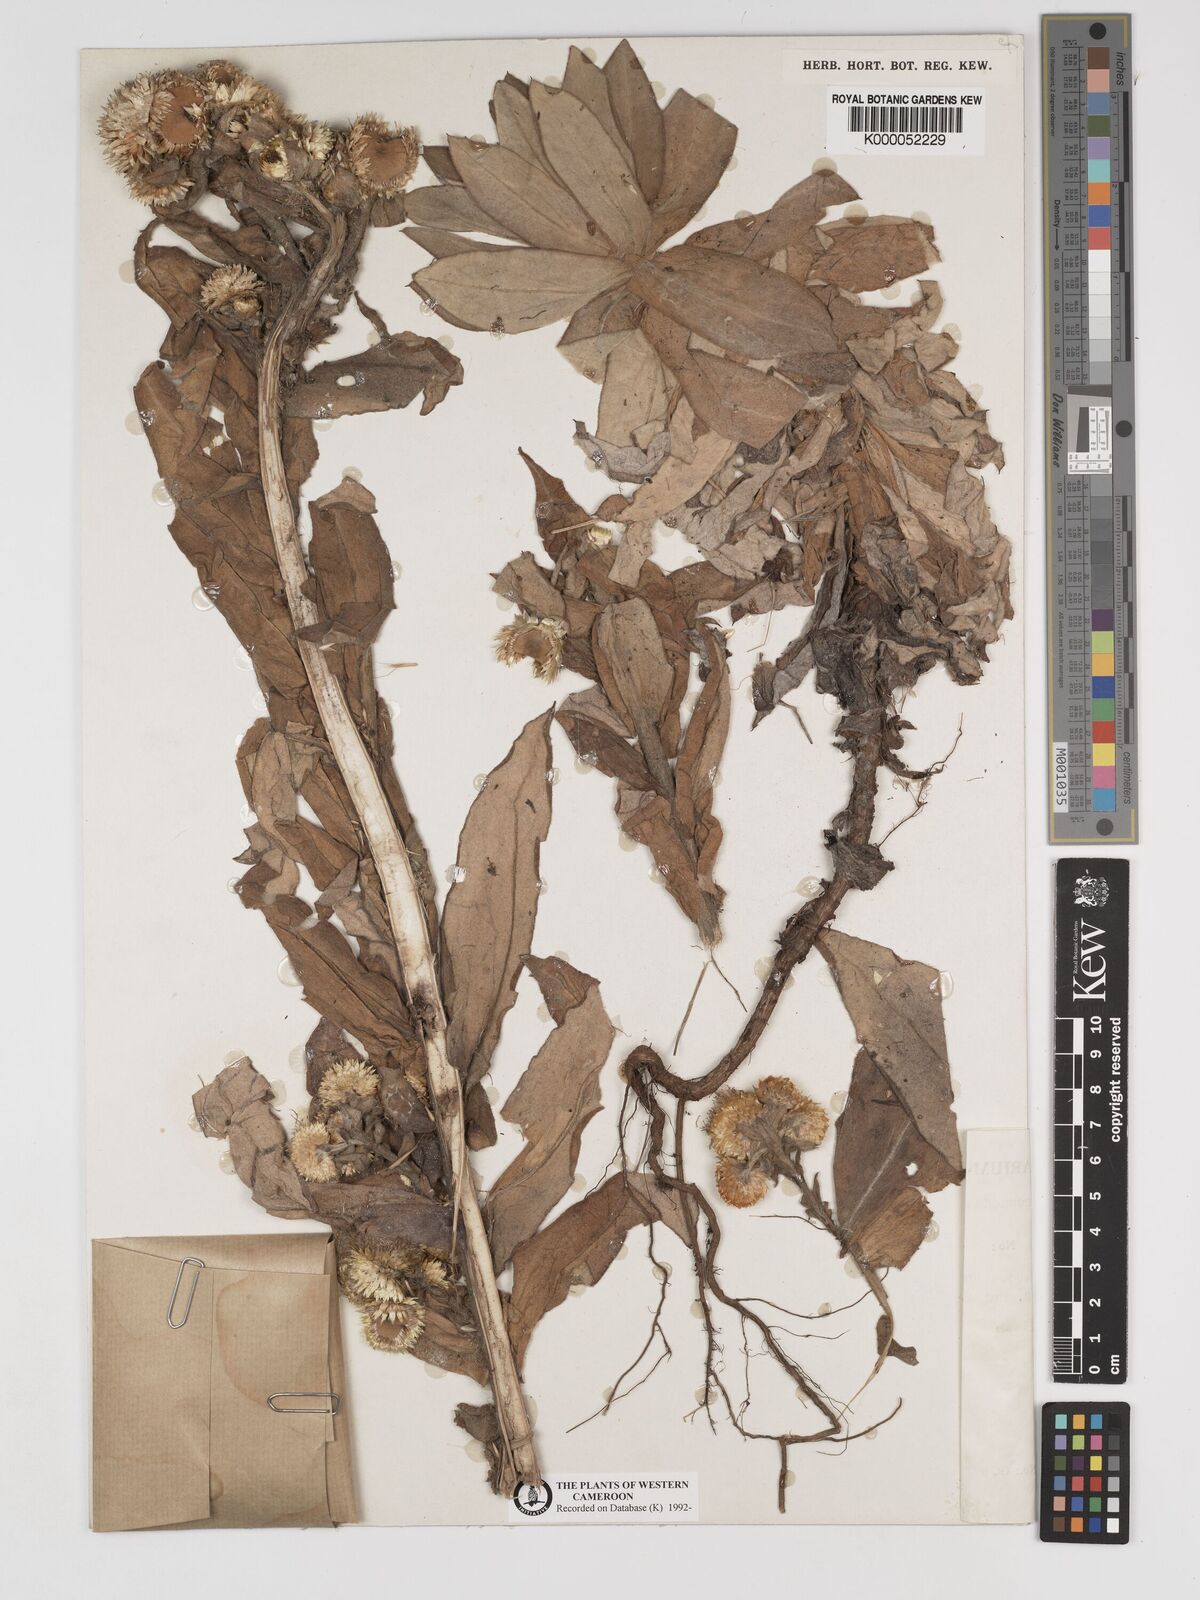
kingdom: Plantae
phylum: Tracheophyta
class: Magnoliopsida
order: Asterales
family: Asteraceae
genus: Helichrysum
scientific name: Helichrysum cameroonense
